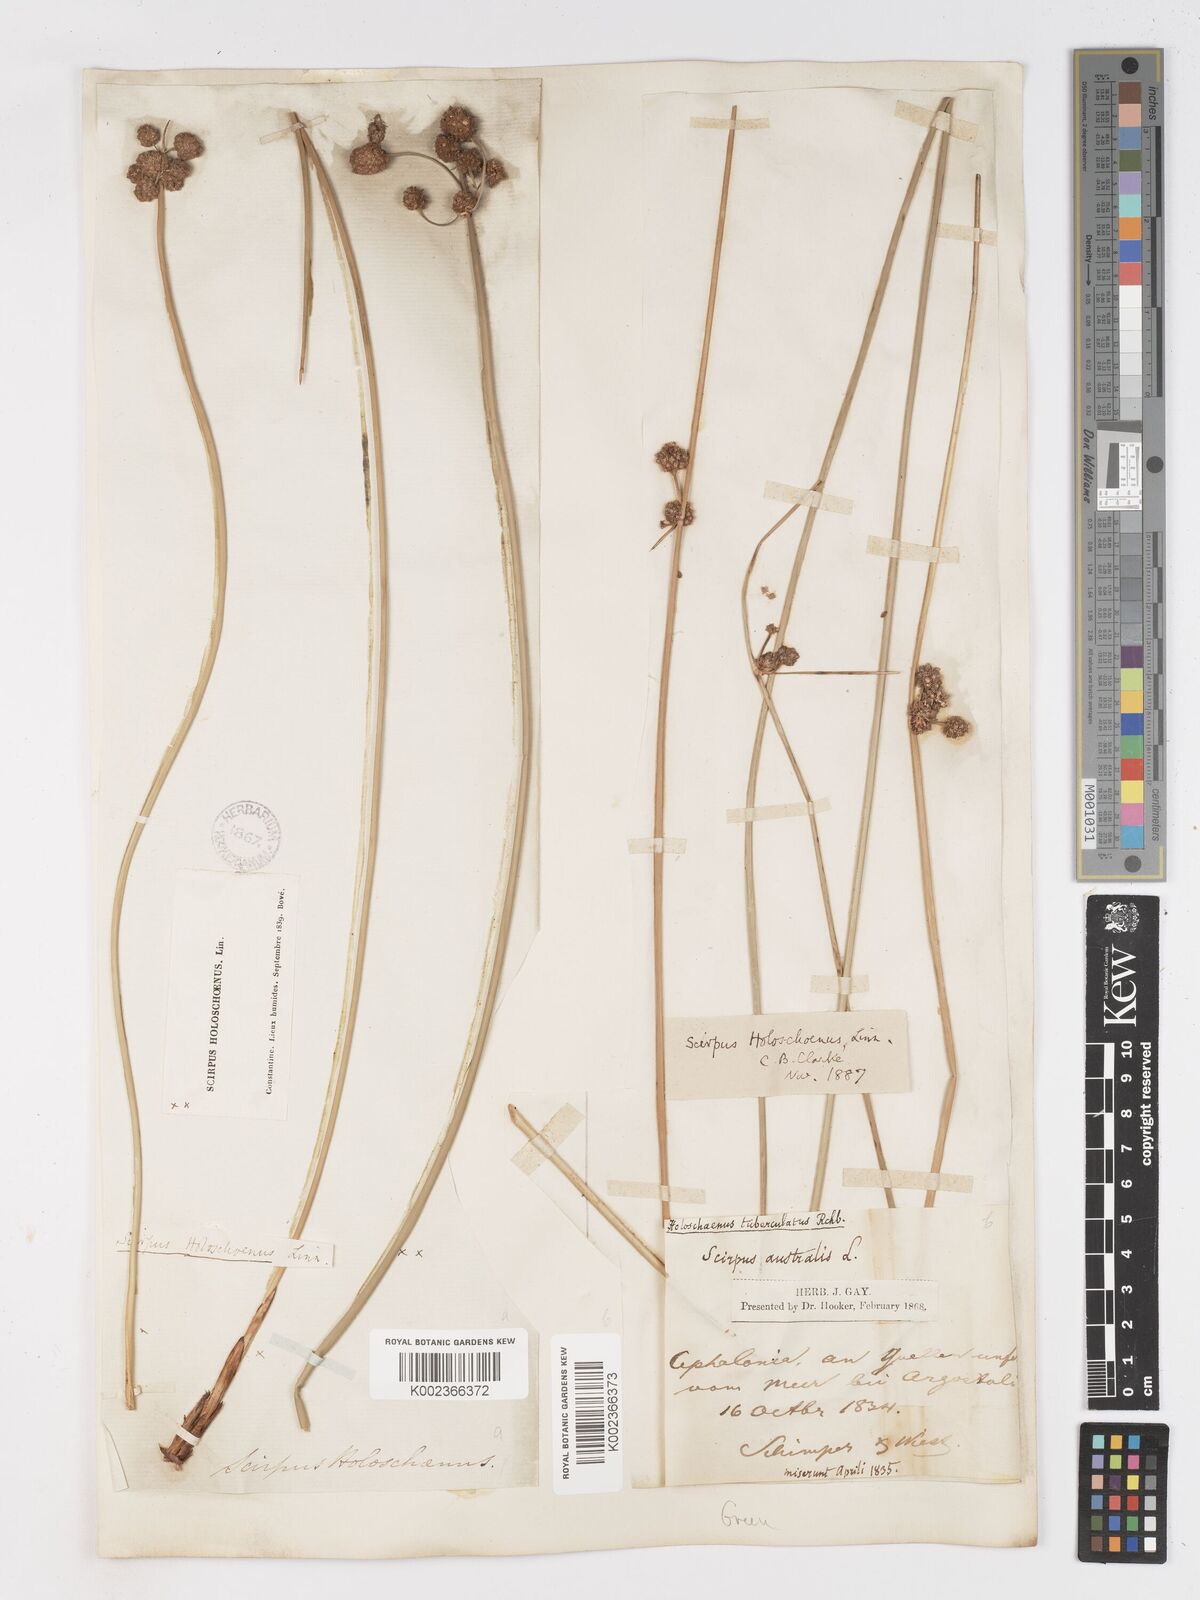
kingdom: Plantae
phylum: Tracheophyta
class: Liliopsida
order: Poales
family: Cyperaceae
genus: Scirpoides
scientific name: Scirpoides holoschoenus
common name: Round-headed club-rush
